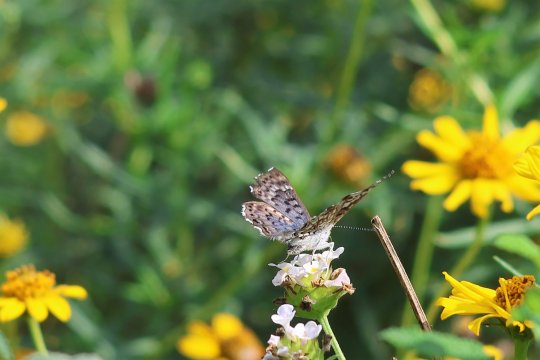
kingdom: Animalia
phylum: Arthropoda
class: Insecta
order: Lepidoptera
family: Riodinidae
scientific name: Riodinidae
